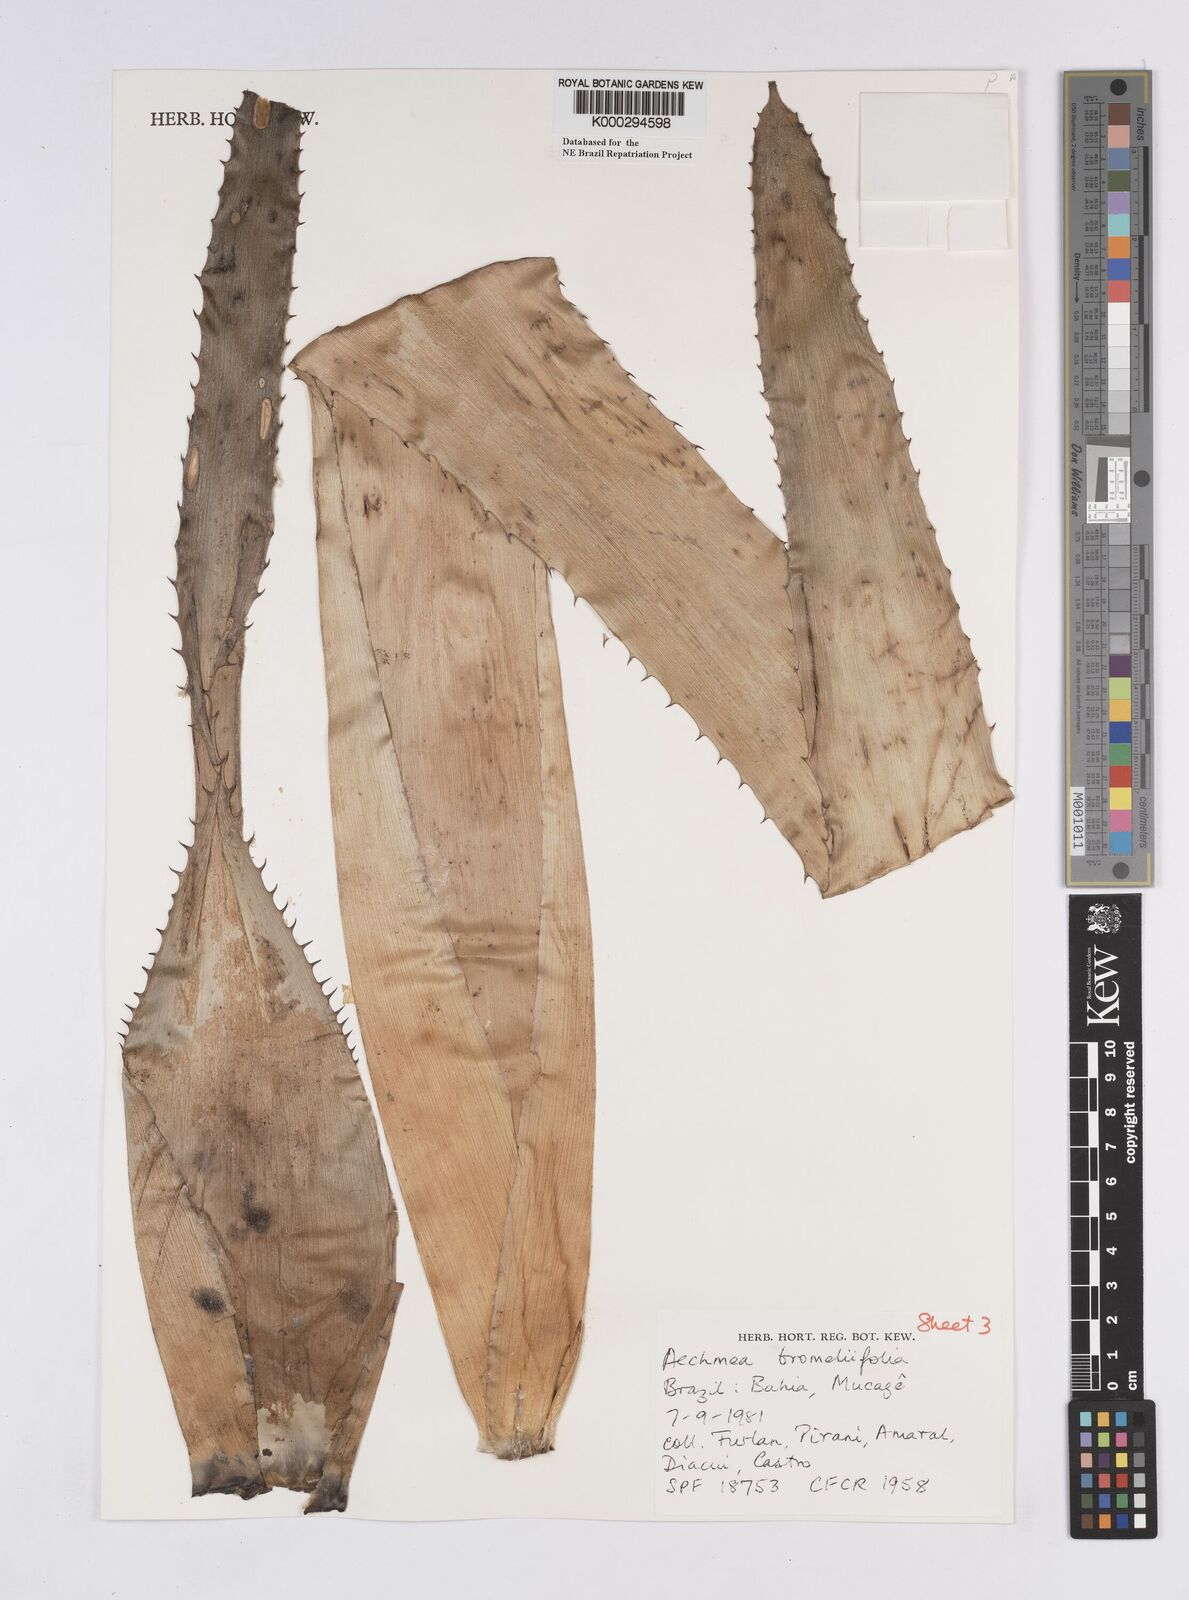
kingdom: Plantae
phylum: Tracheophyta
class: Liliopsida
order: Poales
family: Bromeliaceae
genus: Aechmea
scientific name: Aechmea
